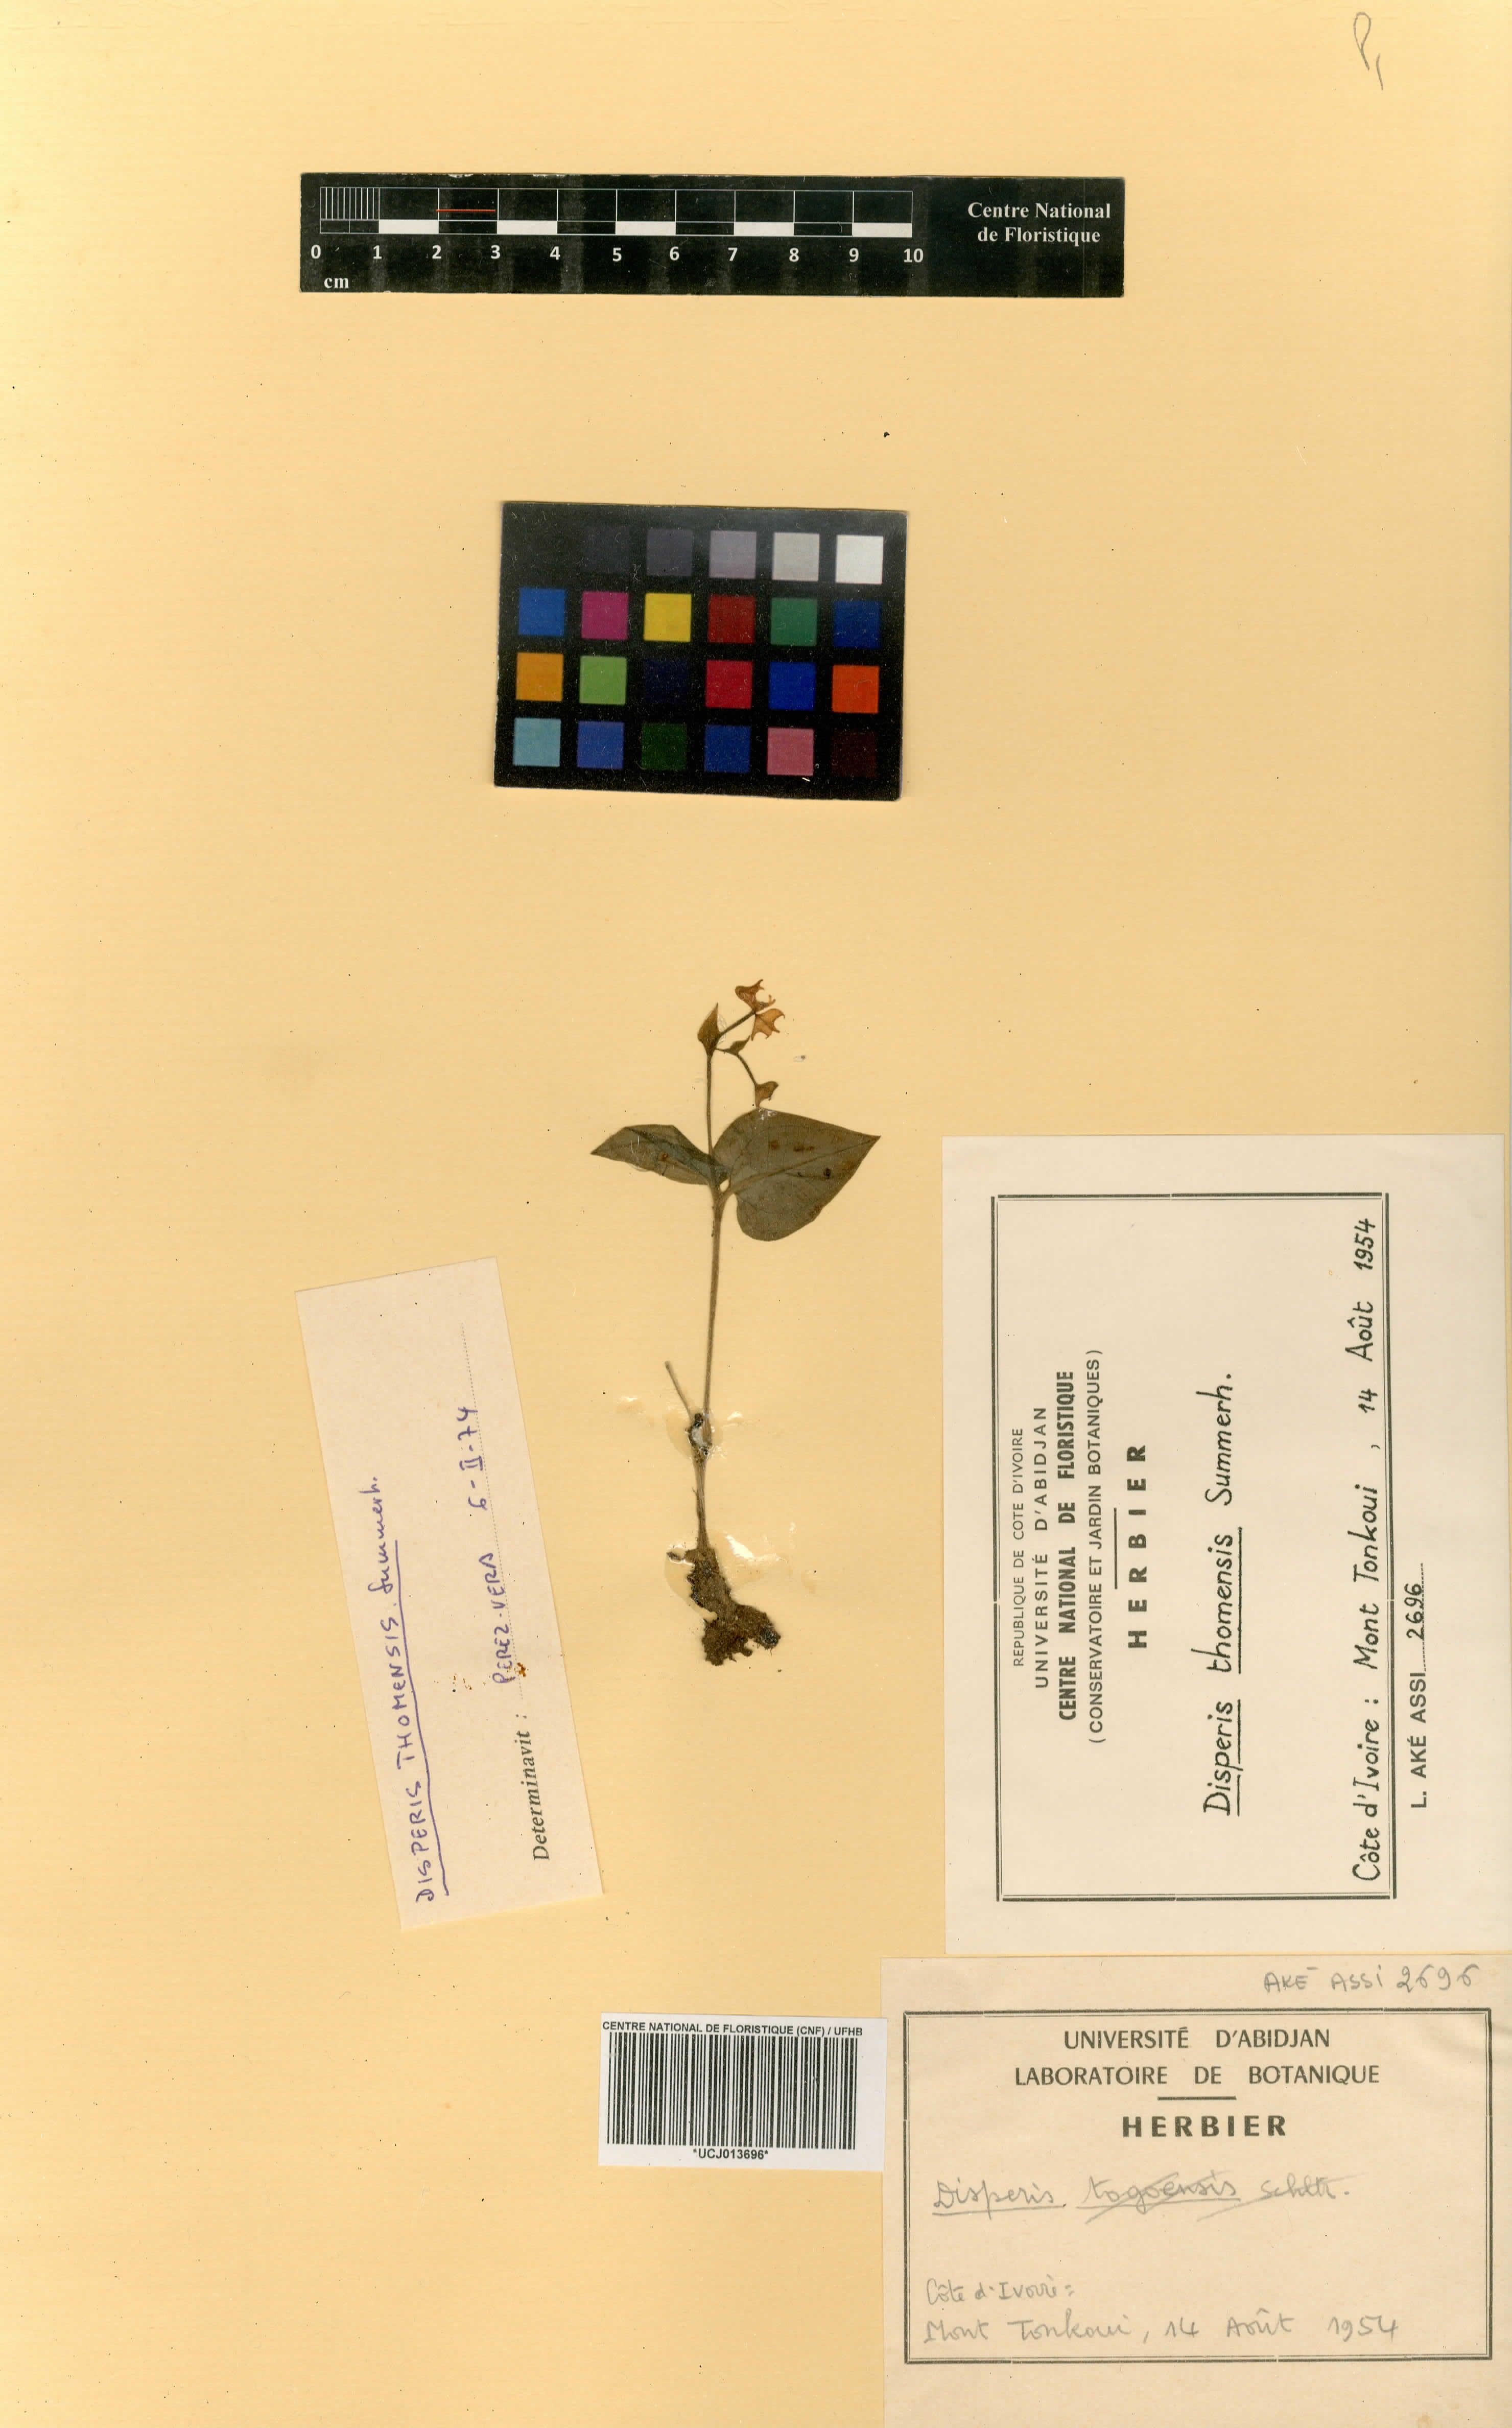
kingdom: Plantae
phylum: Tracheophyta
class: Liliopsida
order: Asparagales
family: Orchidaceae
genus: Disperis
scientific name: Disperis thomensis
